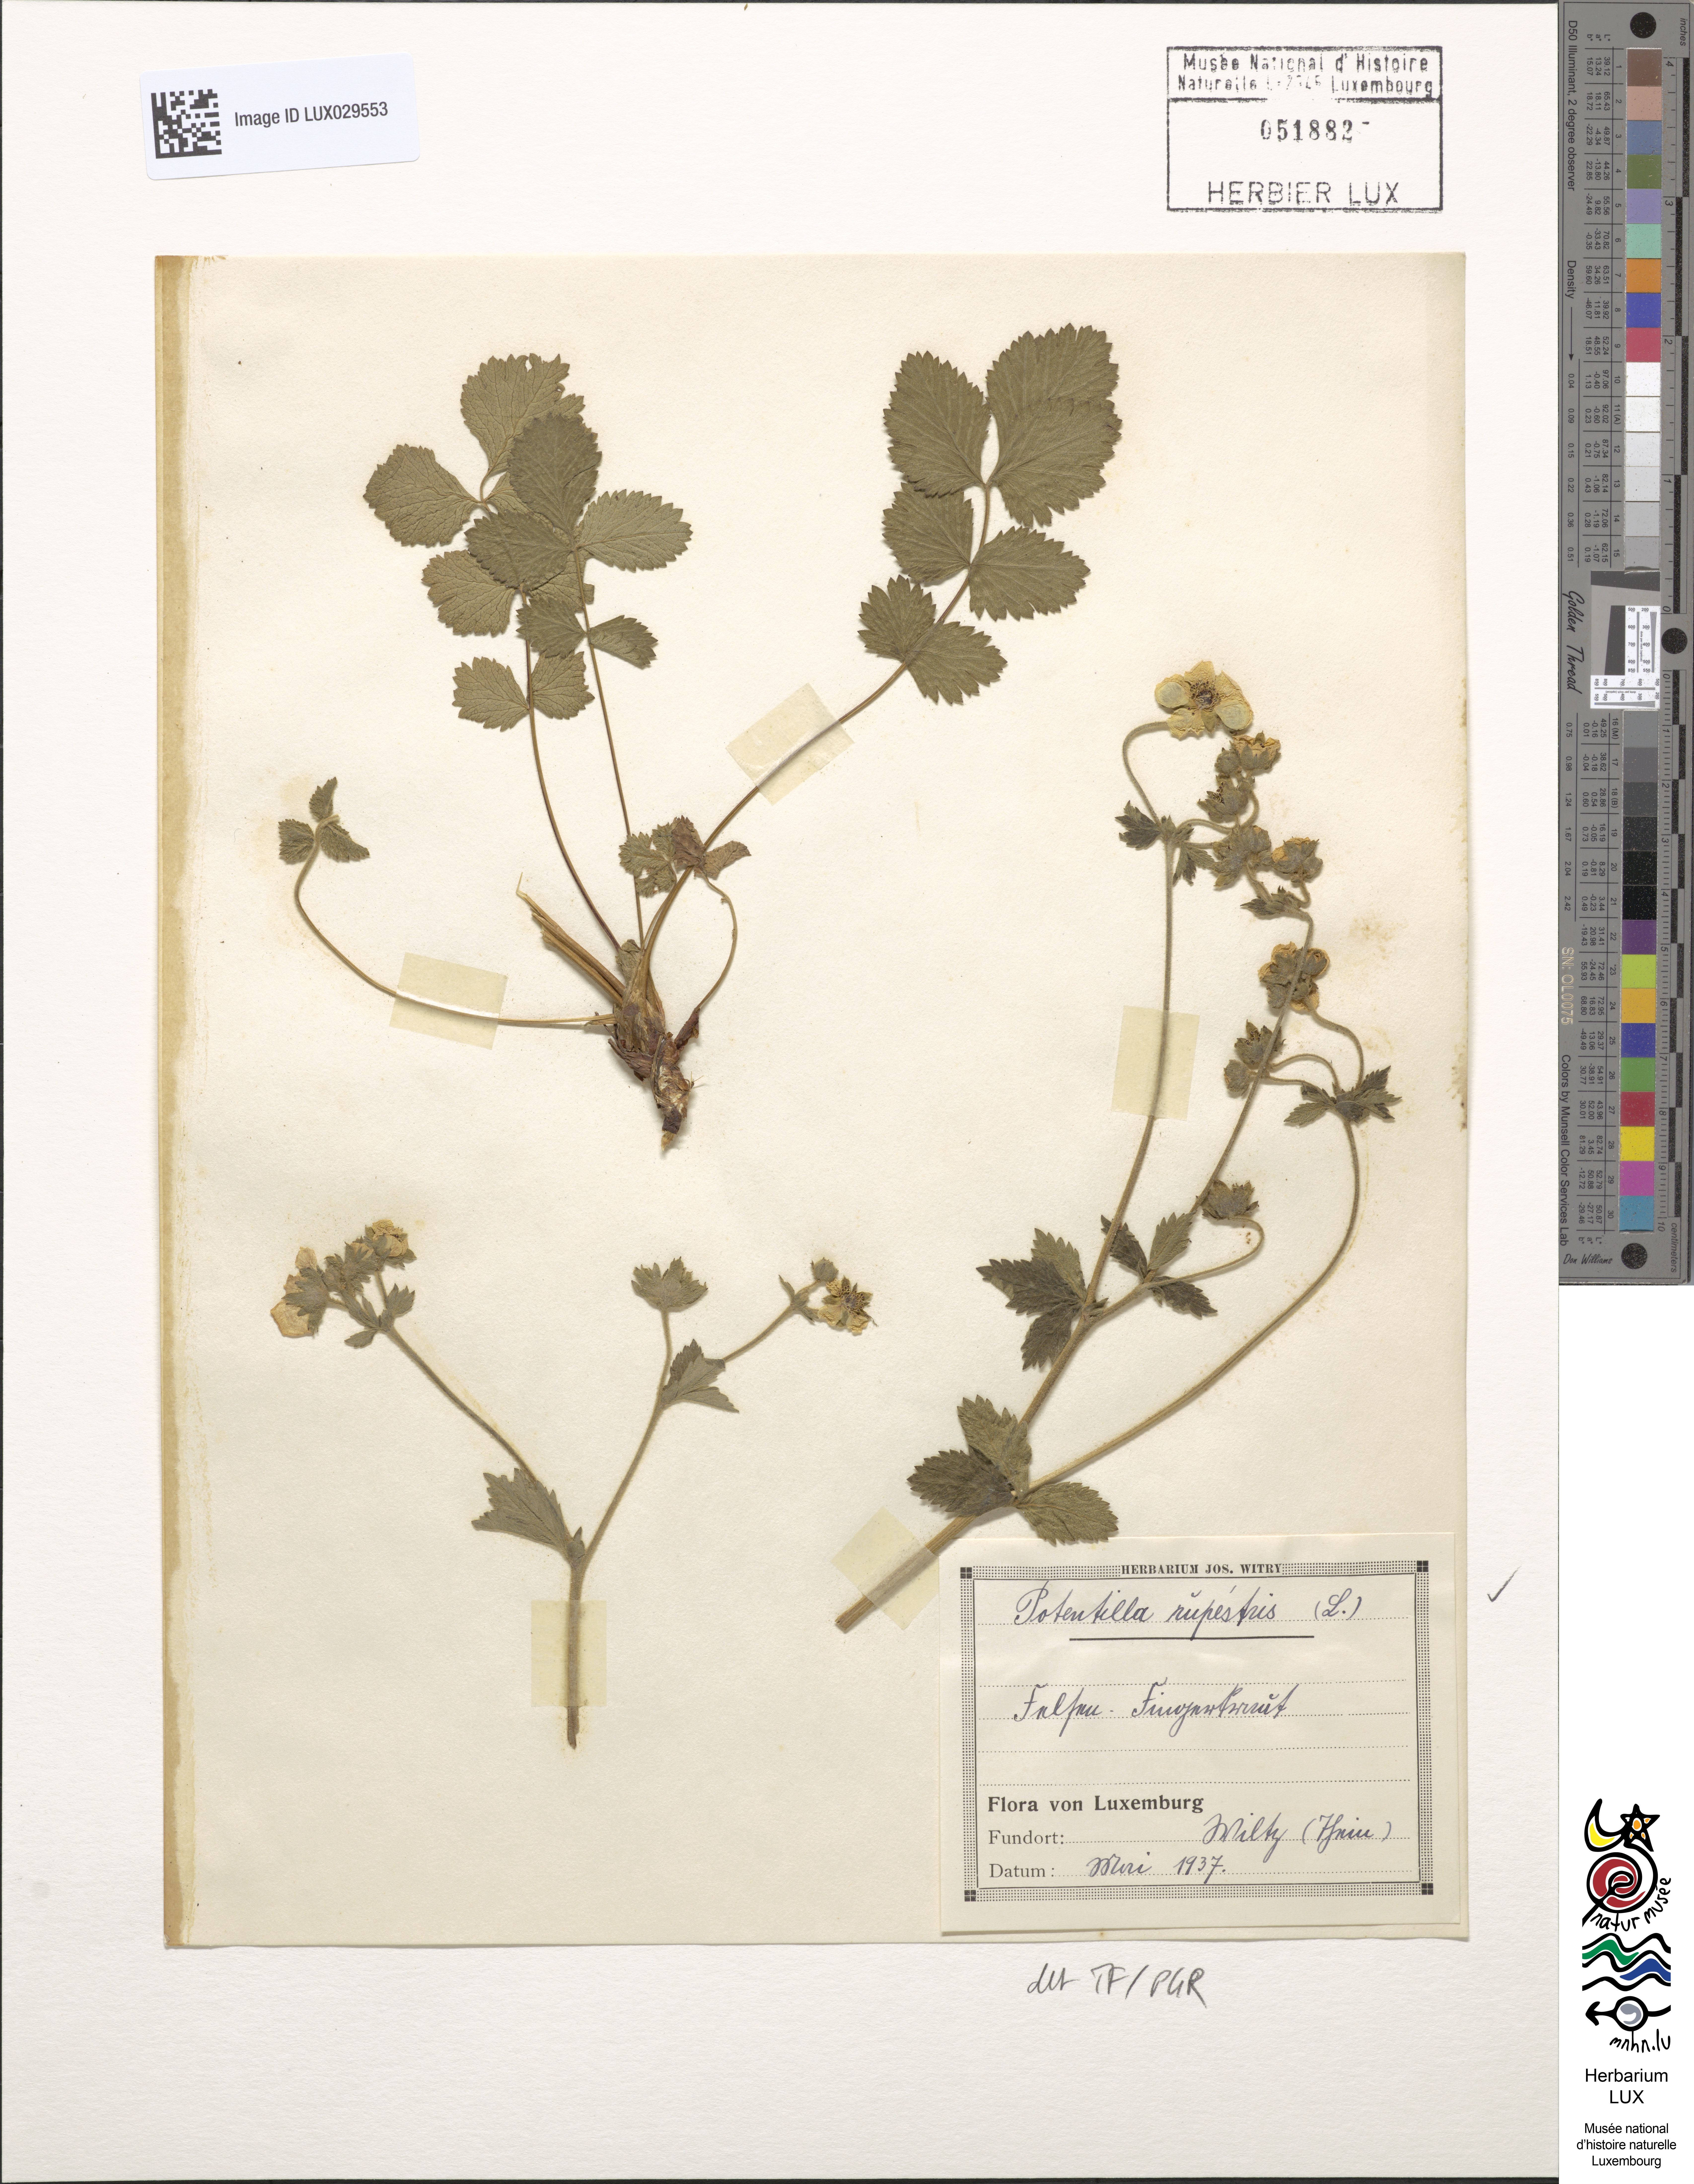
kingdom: Plantae
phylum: Tracheophyta
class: Magnoliopsida
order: Rosales
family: Rosaceae
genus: Drymocallis
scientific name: Drymocallis rupestris
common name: Rock cinquefoil
